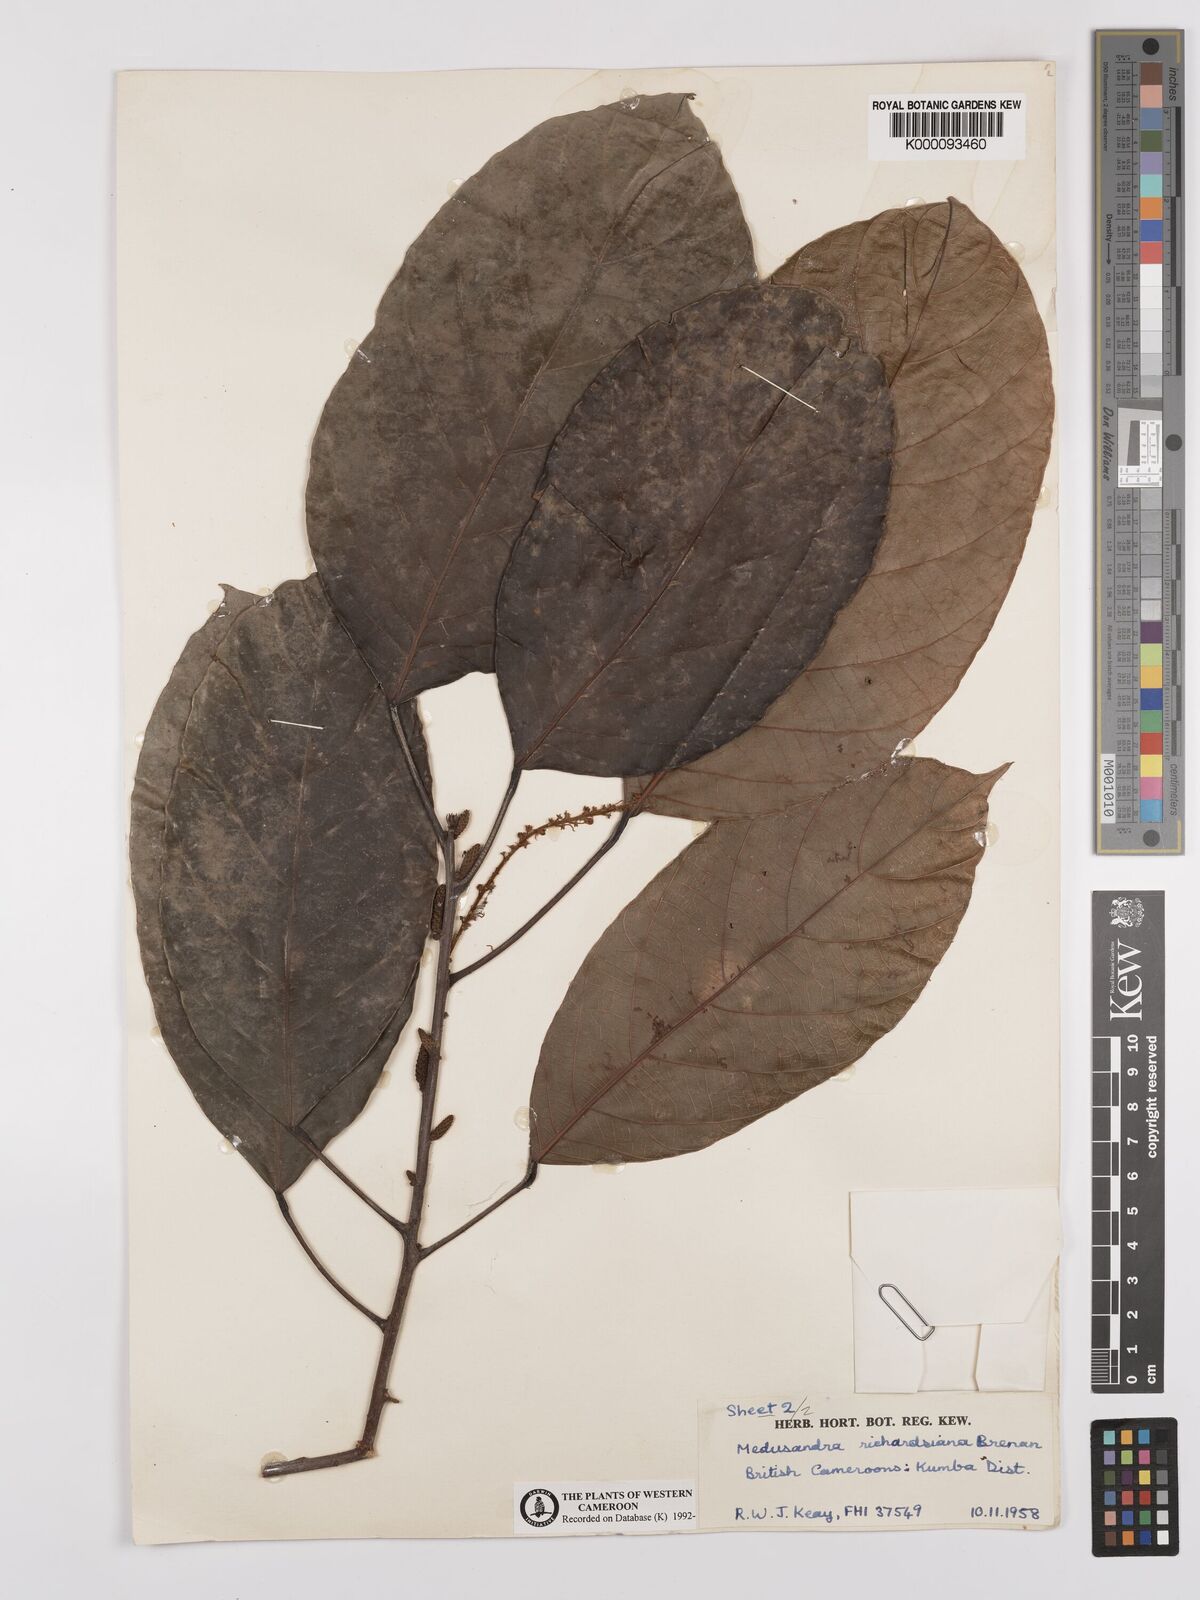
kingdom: Plantae
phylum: Tracheophyta
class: Magnoliopsida
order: Saxifragales
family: Peridiscaceae
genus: Medusandra
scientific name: Medusandra richardsiana
